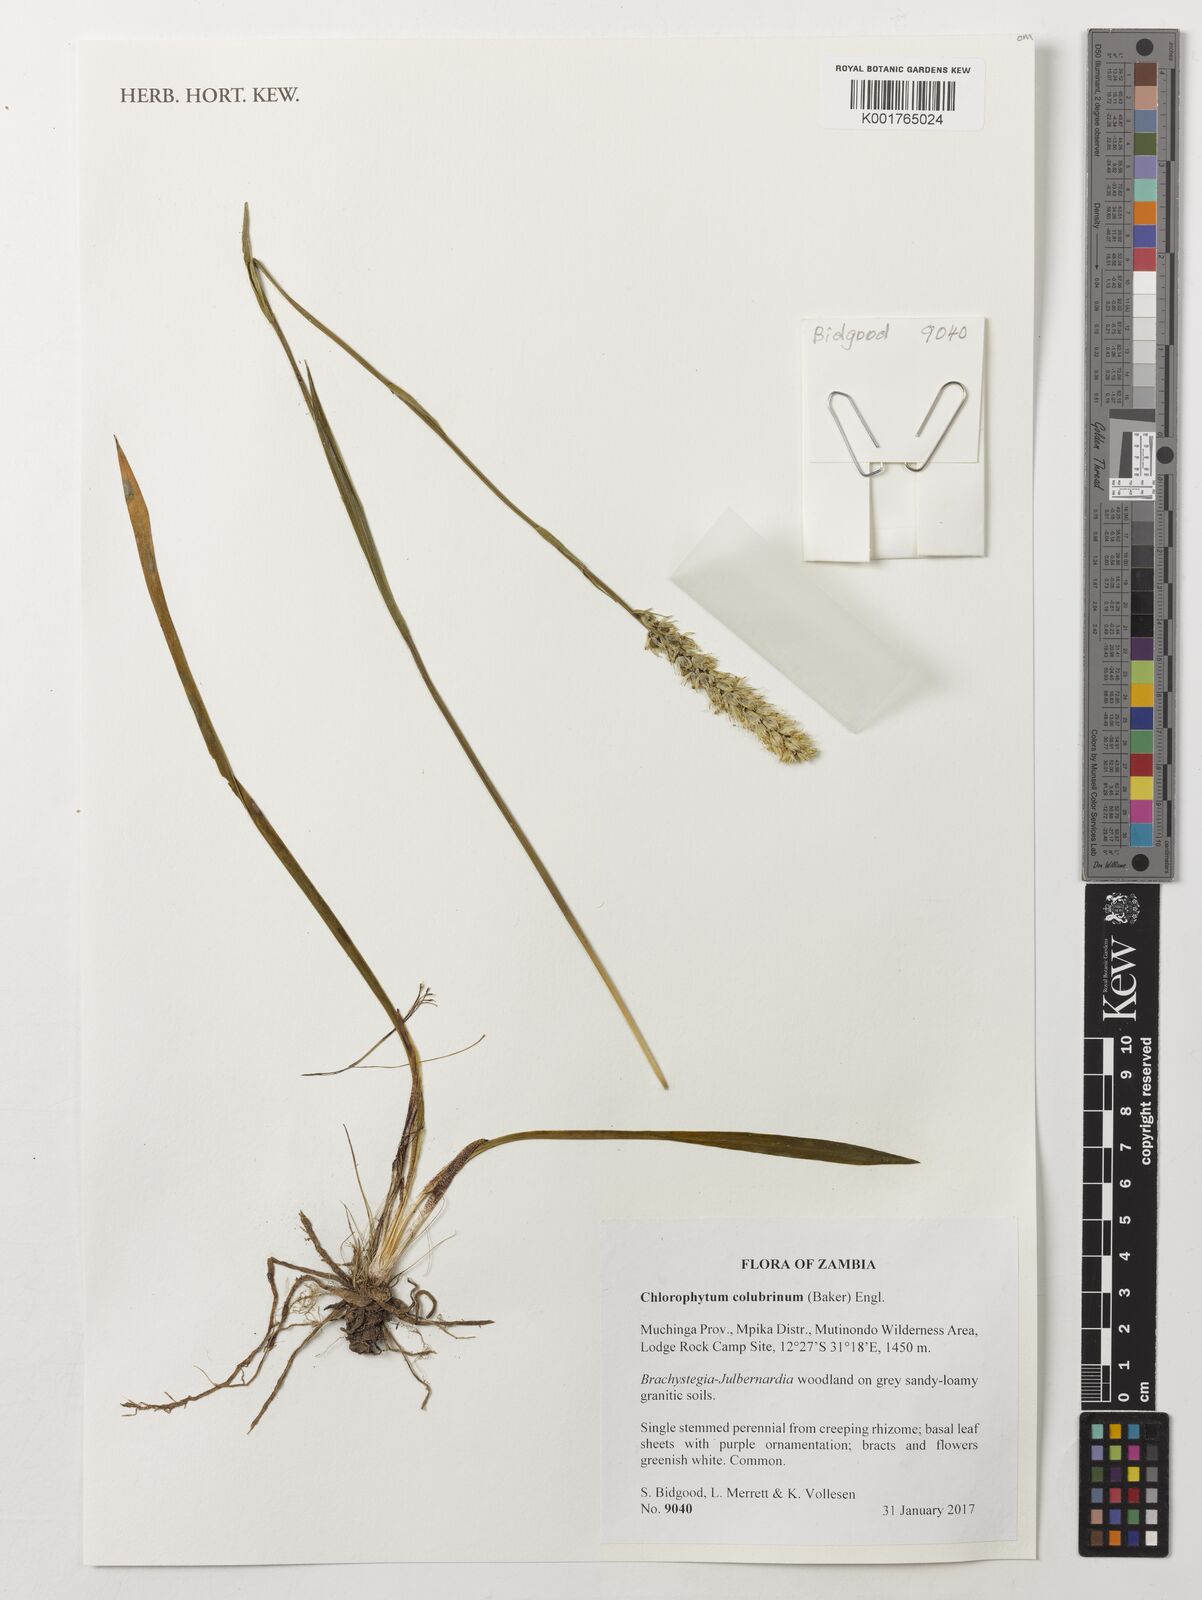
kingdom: Plantae
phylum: Tracheophyta
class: Liliopsida
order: Asparagales
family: Asparagaceae
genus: Chlorophytum
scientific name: Chlorophytum colubrinum
